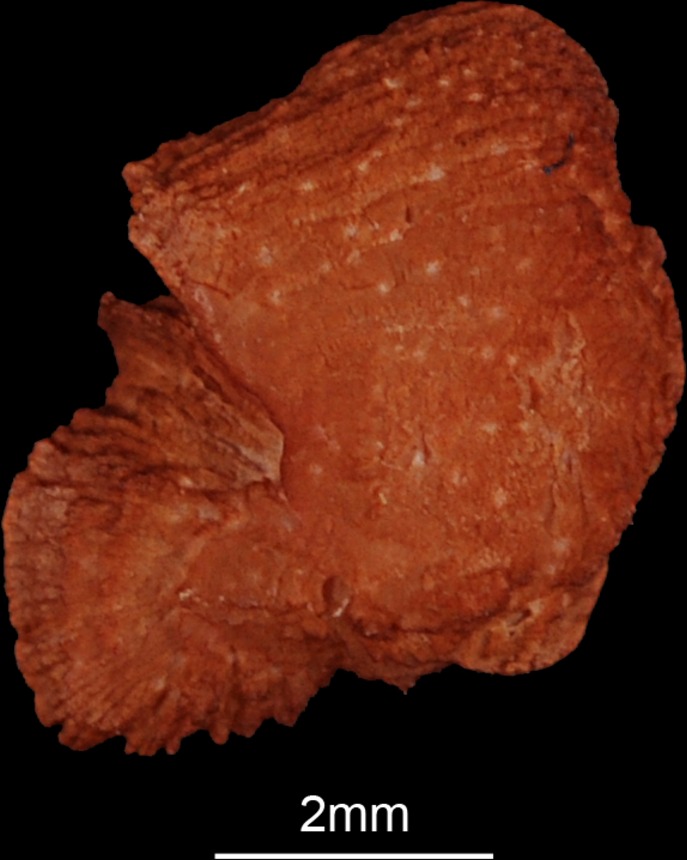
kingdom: Animalia
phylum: Chordata
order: Siluriformes
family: Claroteidae
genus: Auchenoglanis
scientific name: Auchenoglanis occidentalis
